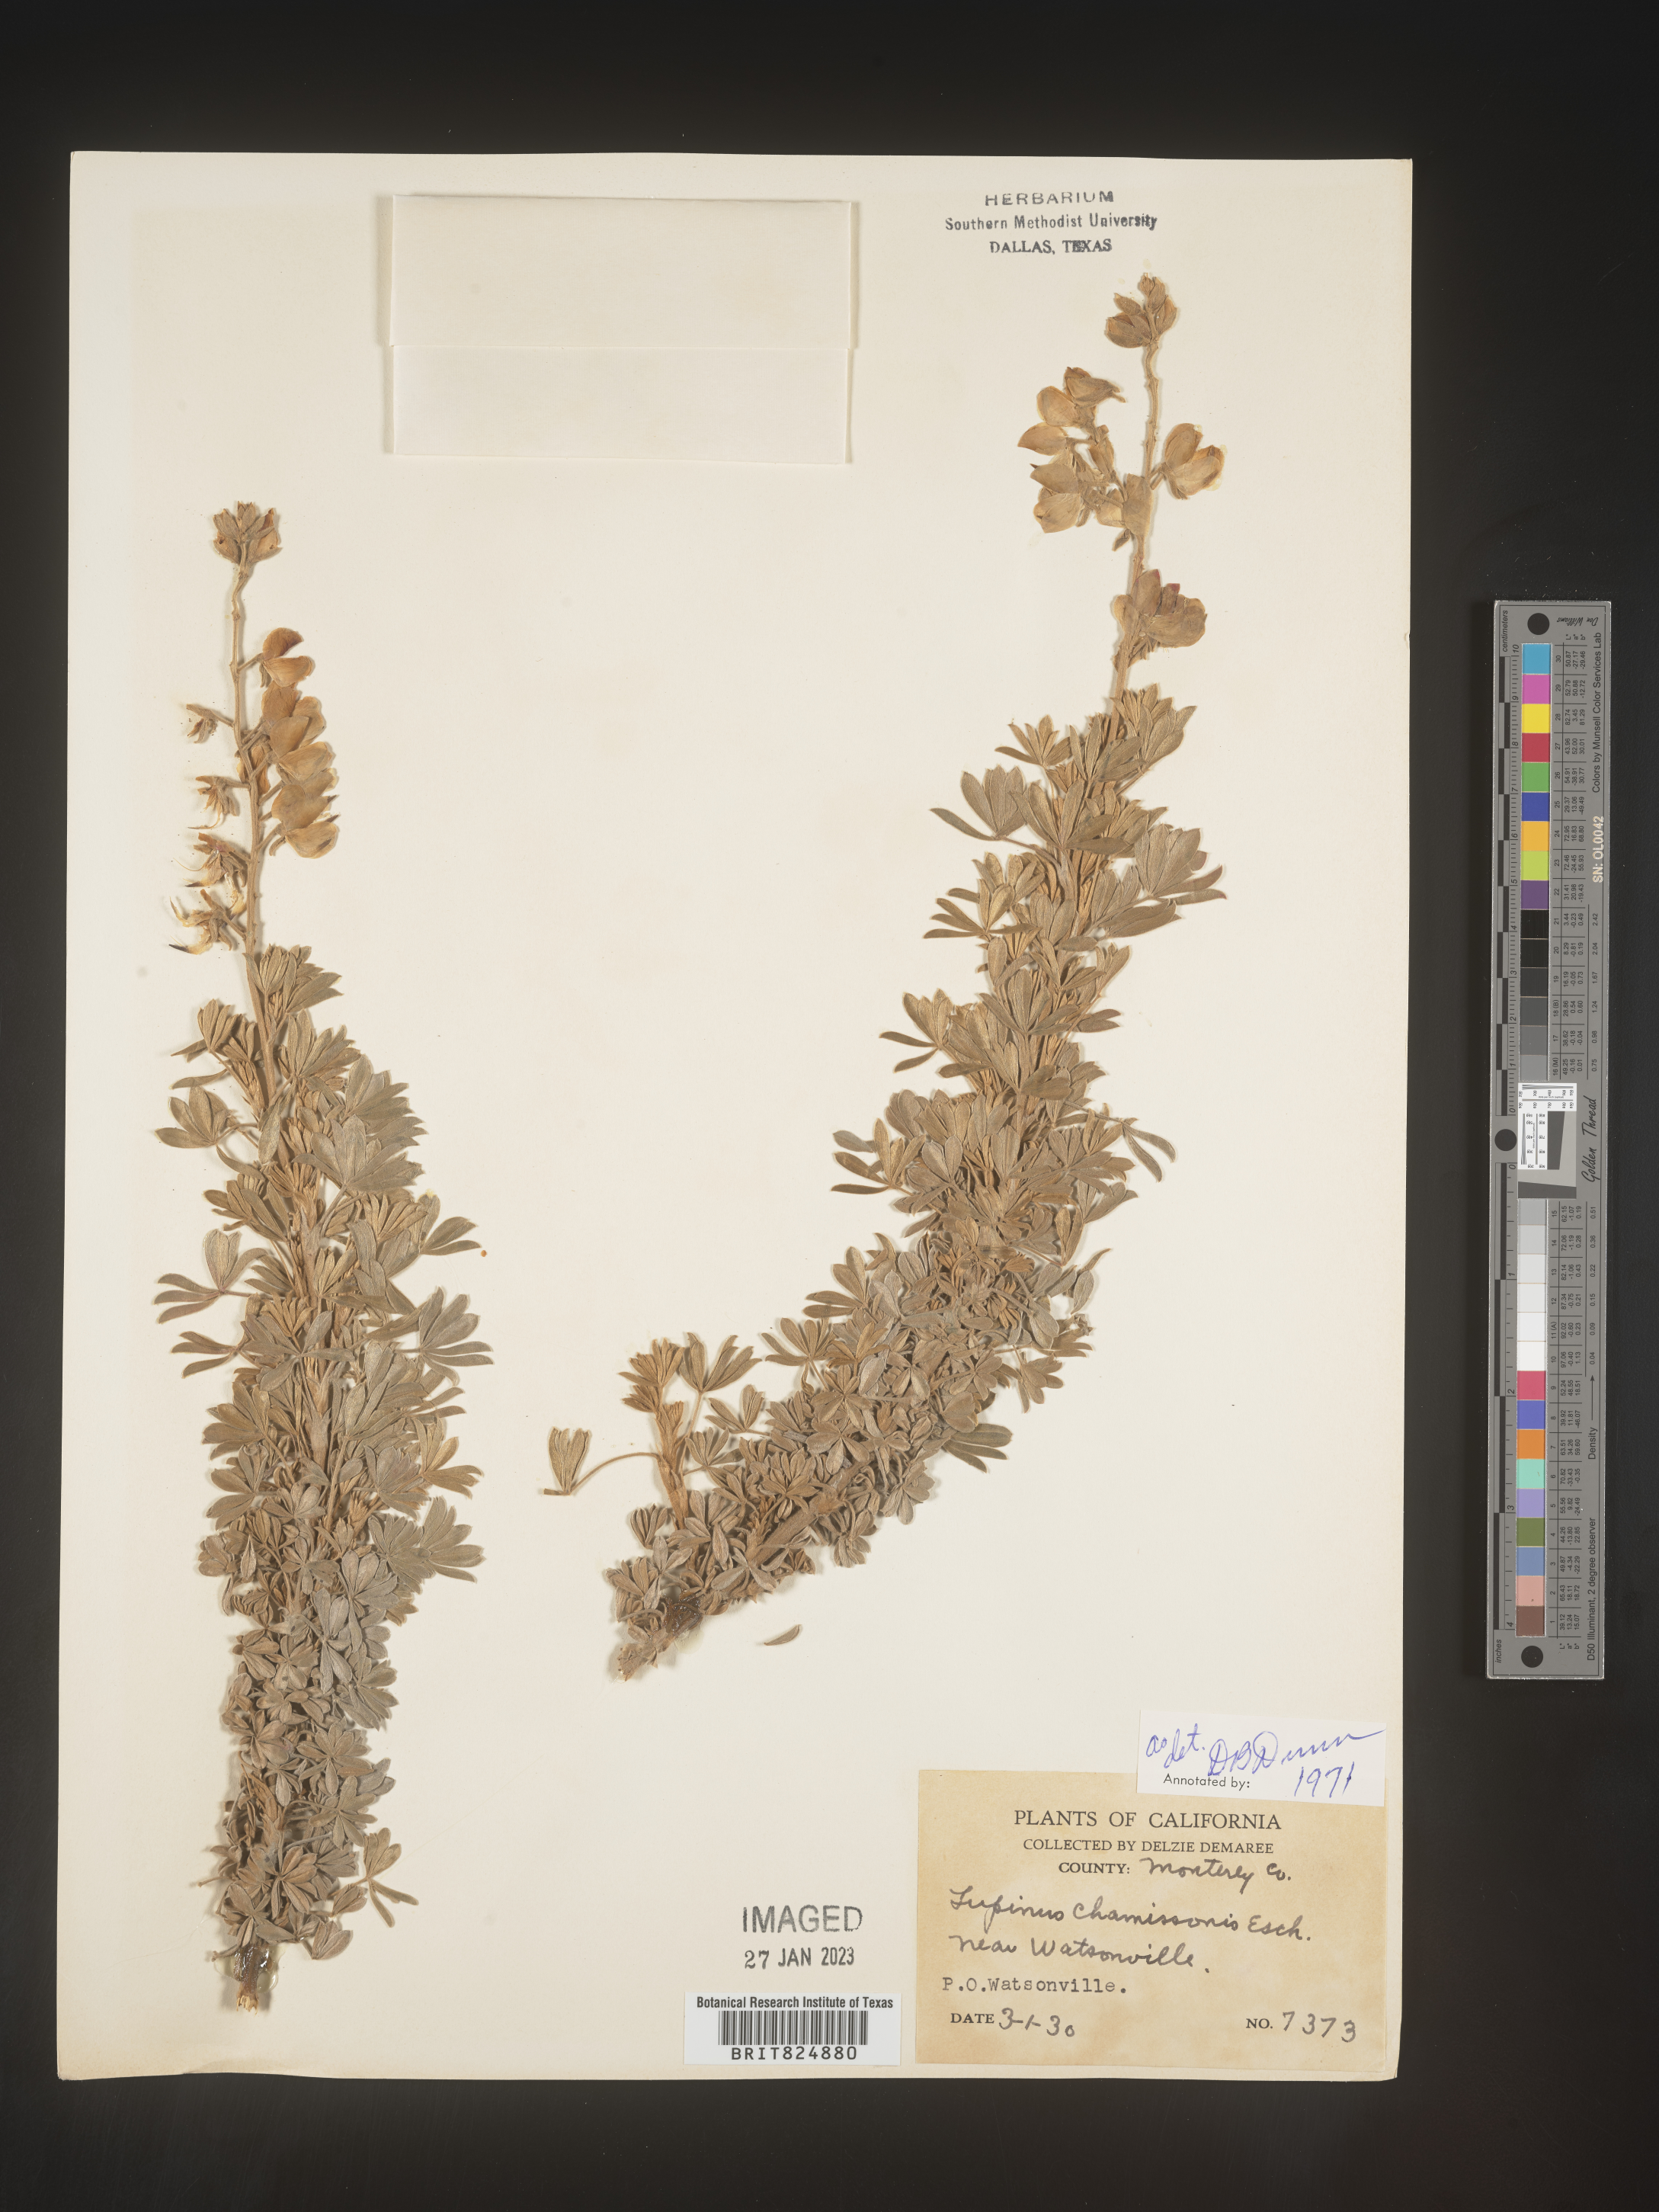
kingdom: Plantae
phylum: Tracheophyta
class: Magnoliopsida
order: Fabales
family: Fabaceae
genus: Lupinus
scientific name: Lupinus
